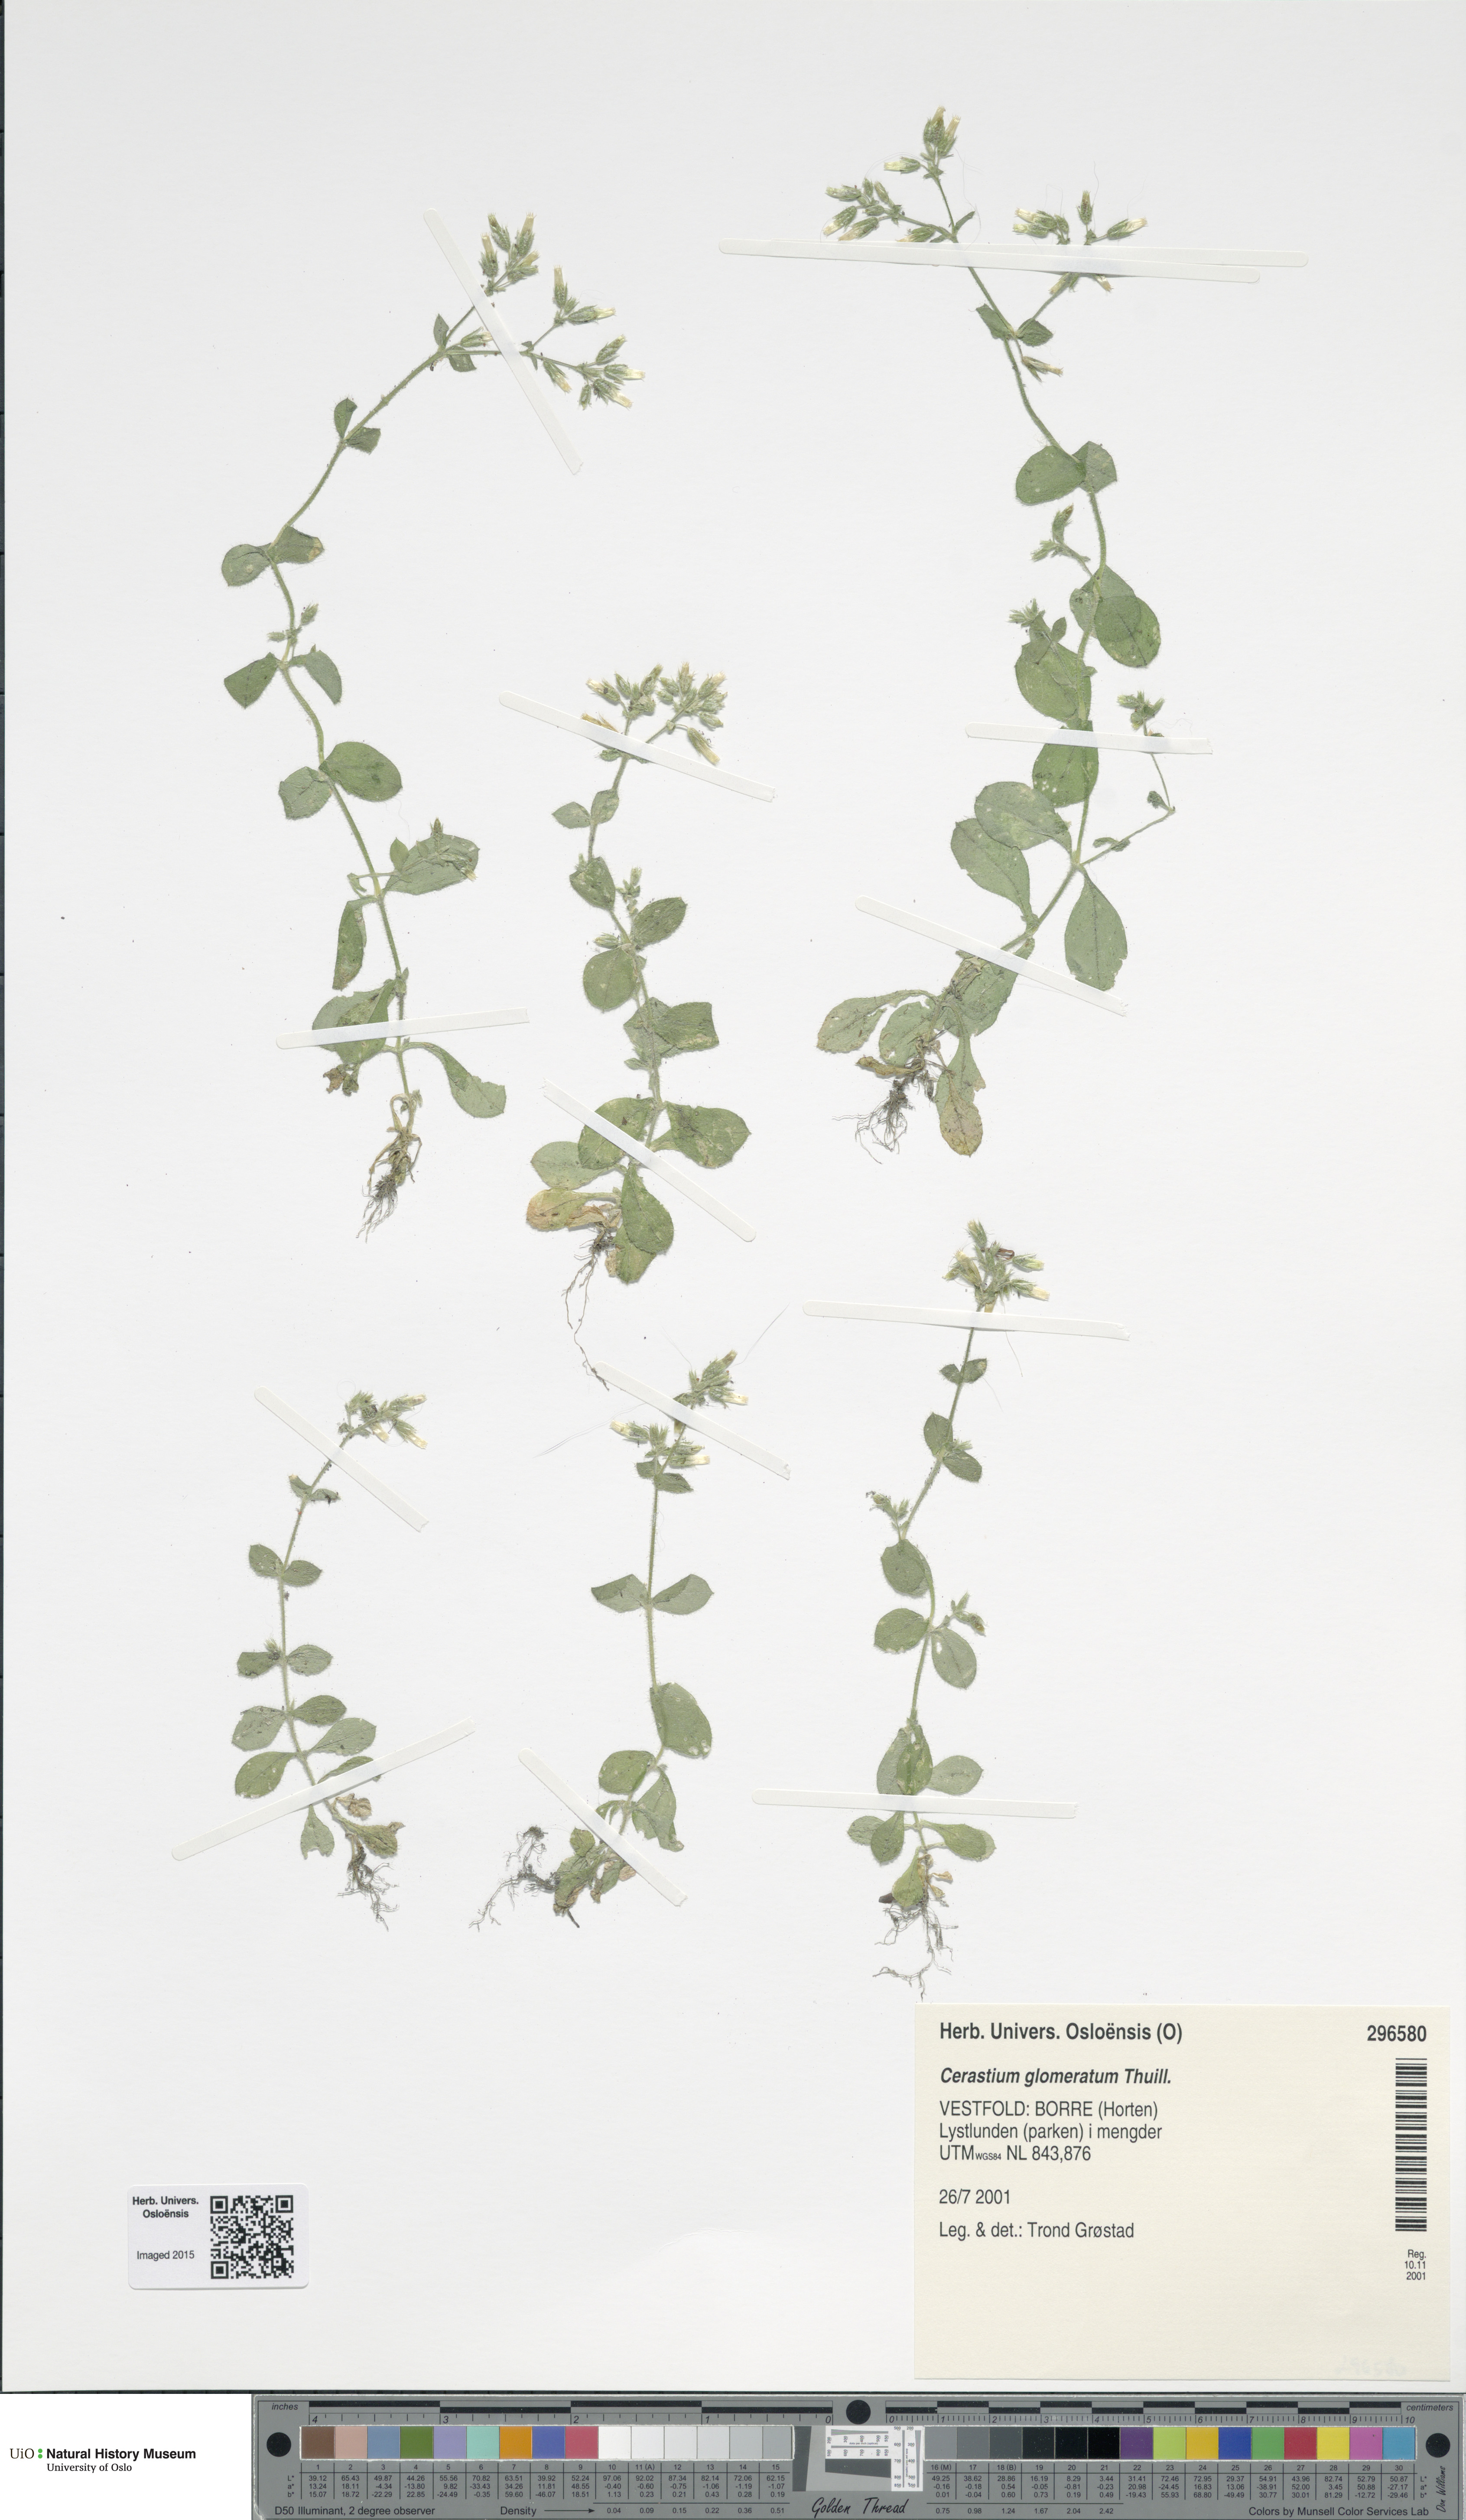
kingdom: Plantae
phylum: Tracheophyta
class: Magnoliopsida
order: Caryophyllales
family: Caryophyllaceae
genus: Cerastium
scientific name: Cerastium glomeratum
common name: Sticky chickweed
